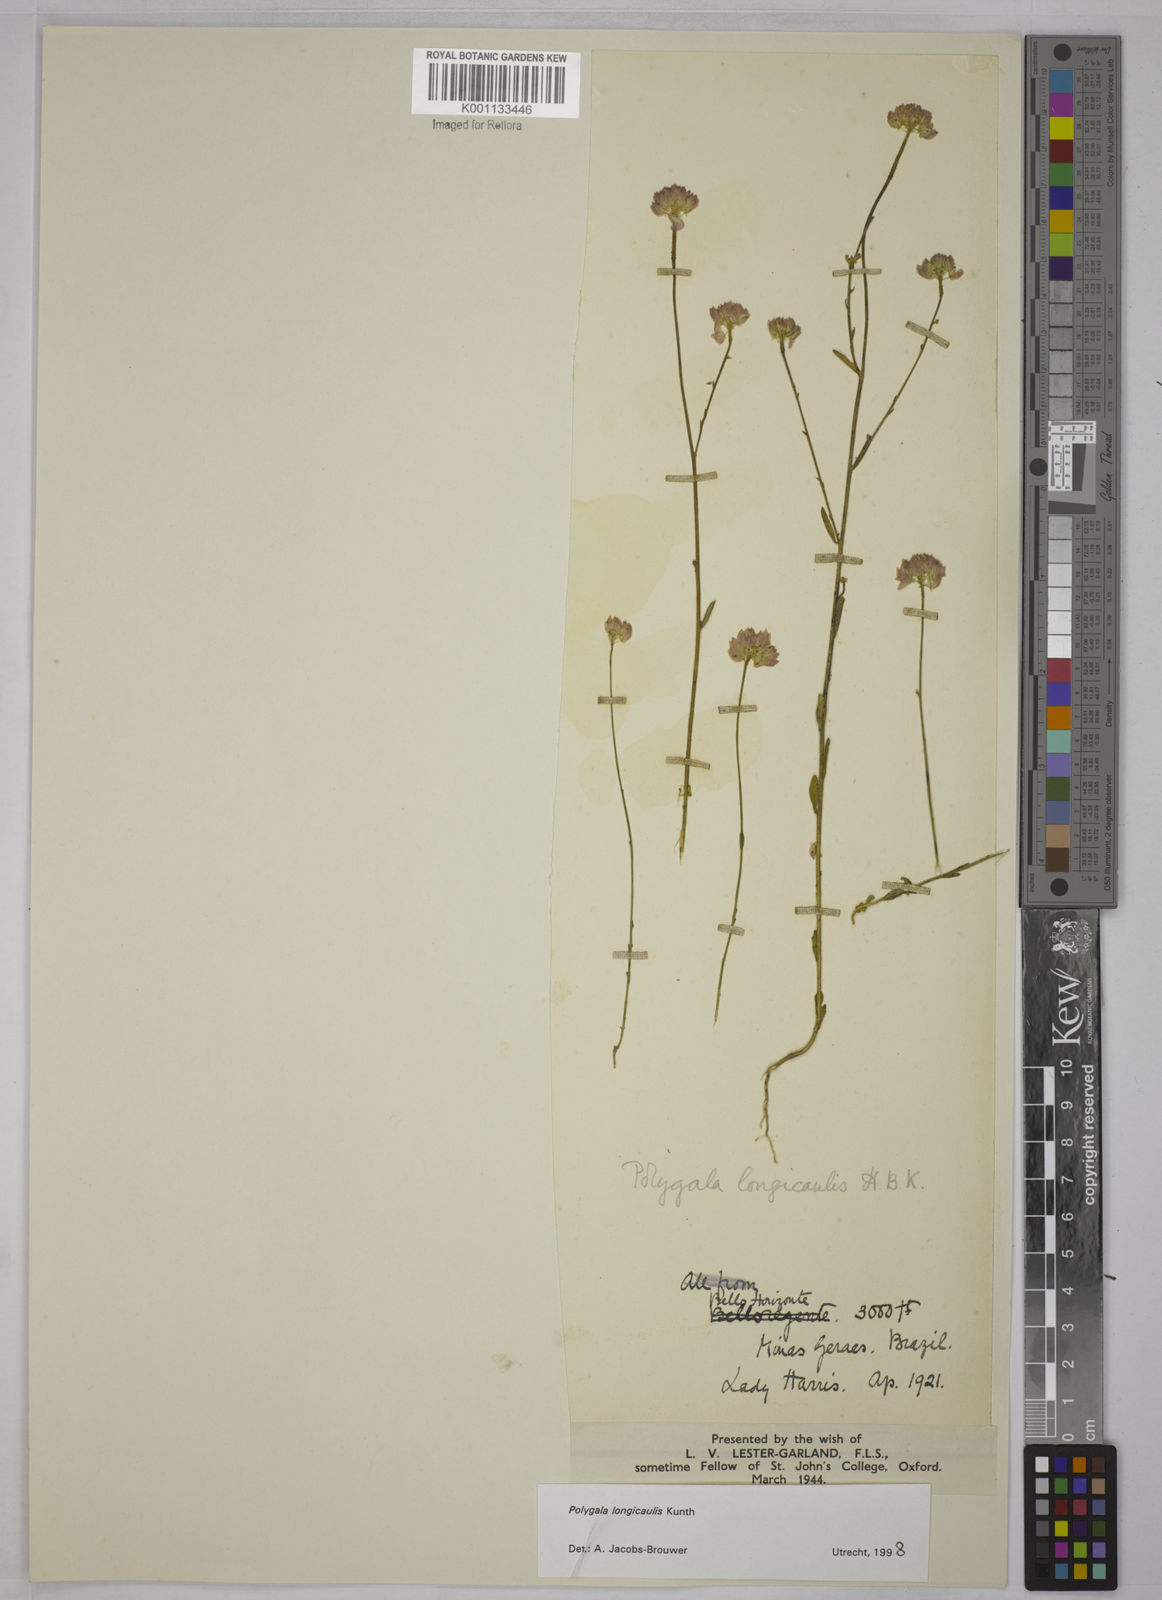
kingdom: Plantae
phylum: Tracheophyta
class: Magnoliopsida
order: Fabales
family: Polygalaceae
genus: Polygala
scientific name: Polygala longicaulis
